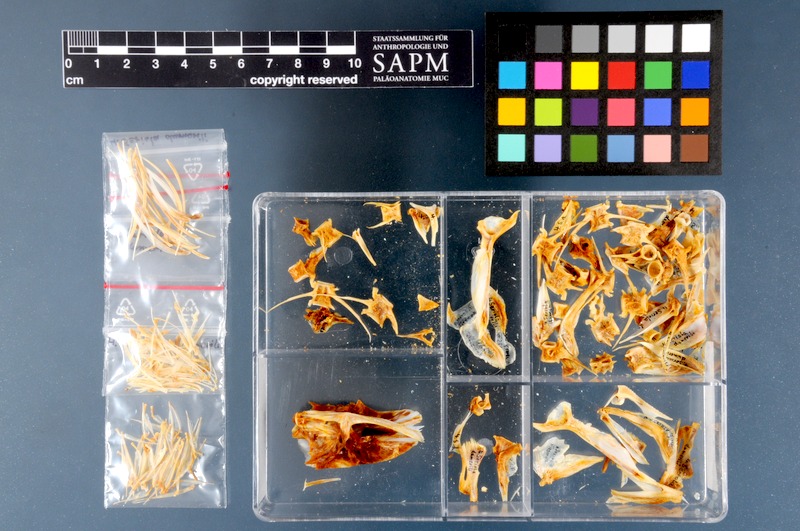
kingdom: Animalia
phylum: Chordata
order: Perciformes
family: Carangidae
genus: Seriola
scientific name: Seriola dumerili
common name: Greater amberjack
